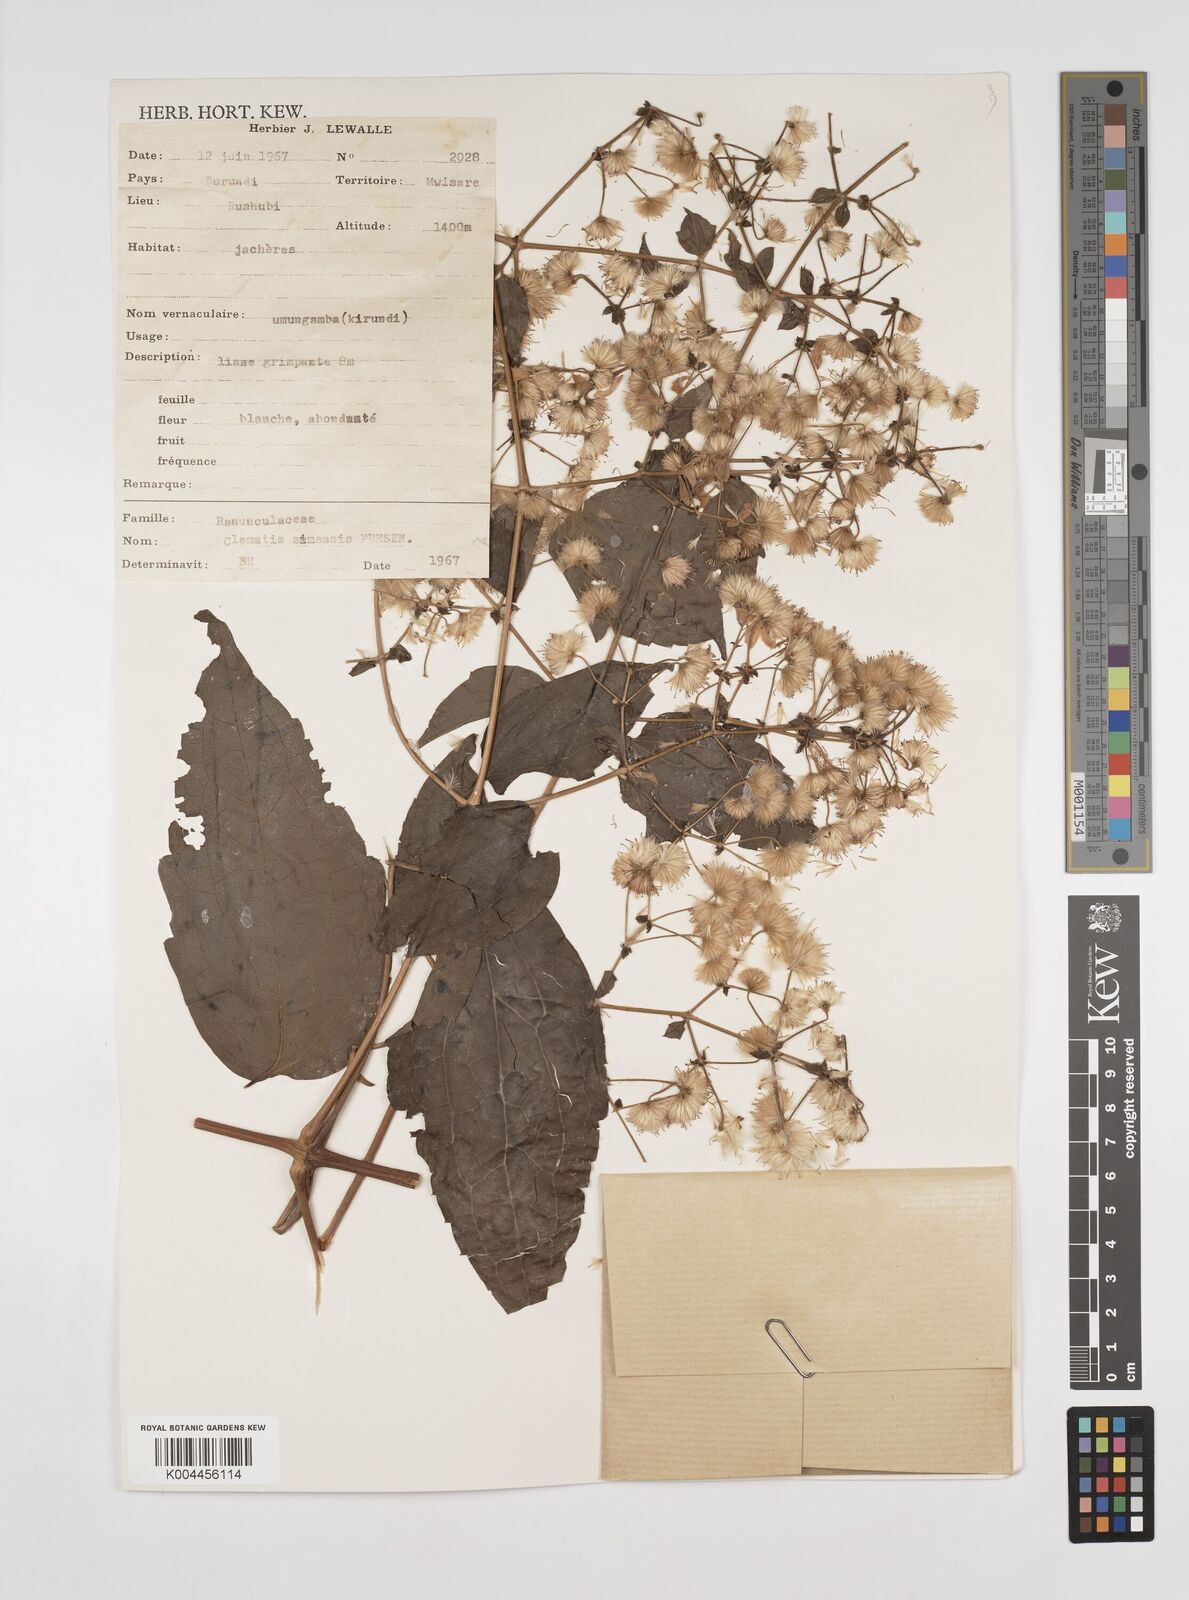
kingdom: Plantae
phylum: Tracheophyta
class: Magnoliopsida
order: Ranunculales
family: Ranunculaceae
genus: Clematis
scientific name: Clematis simensis
